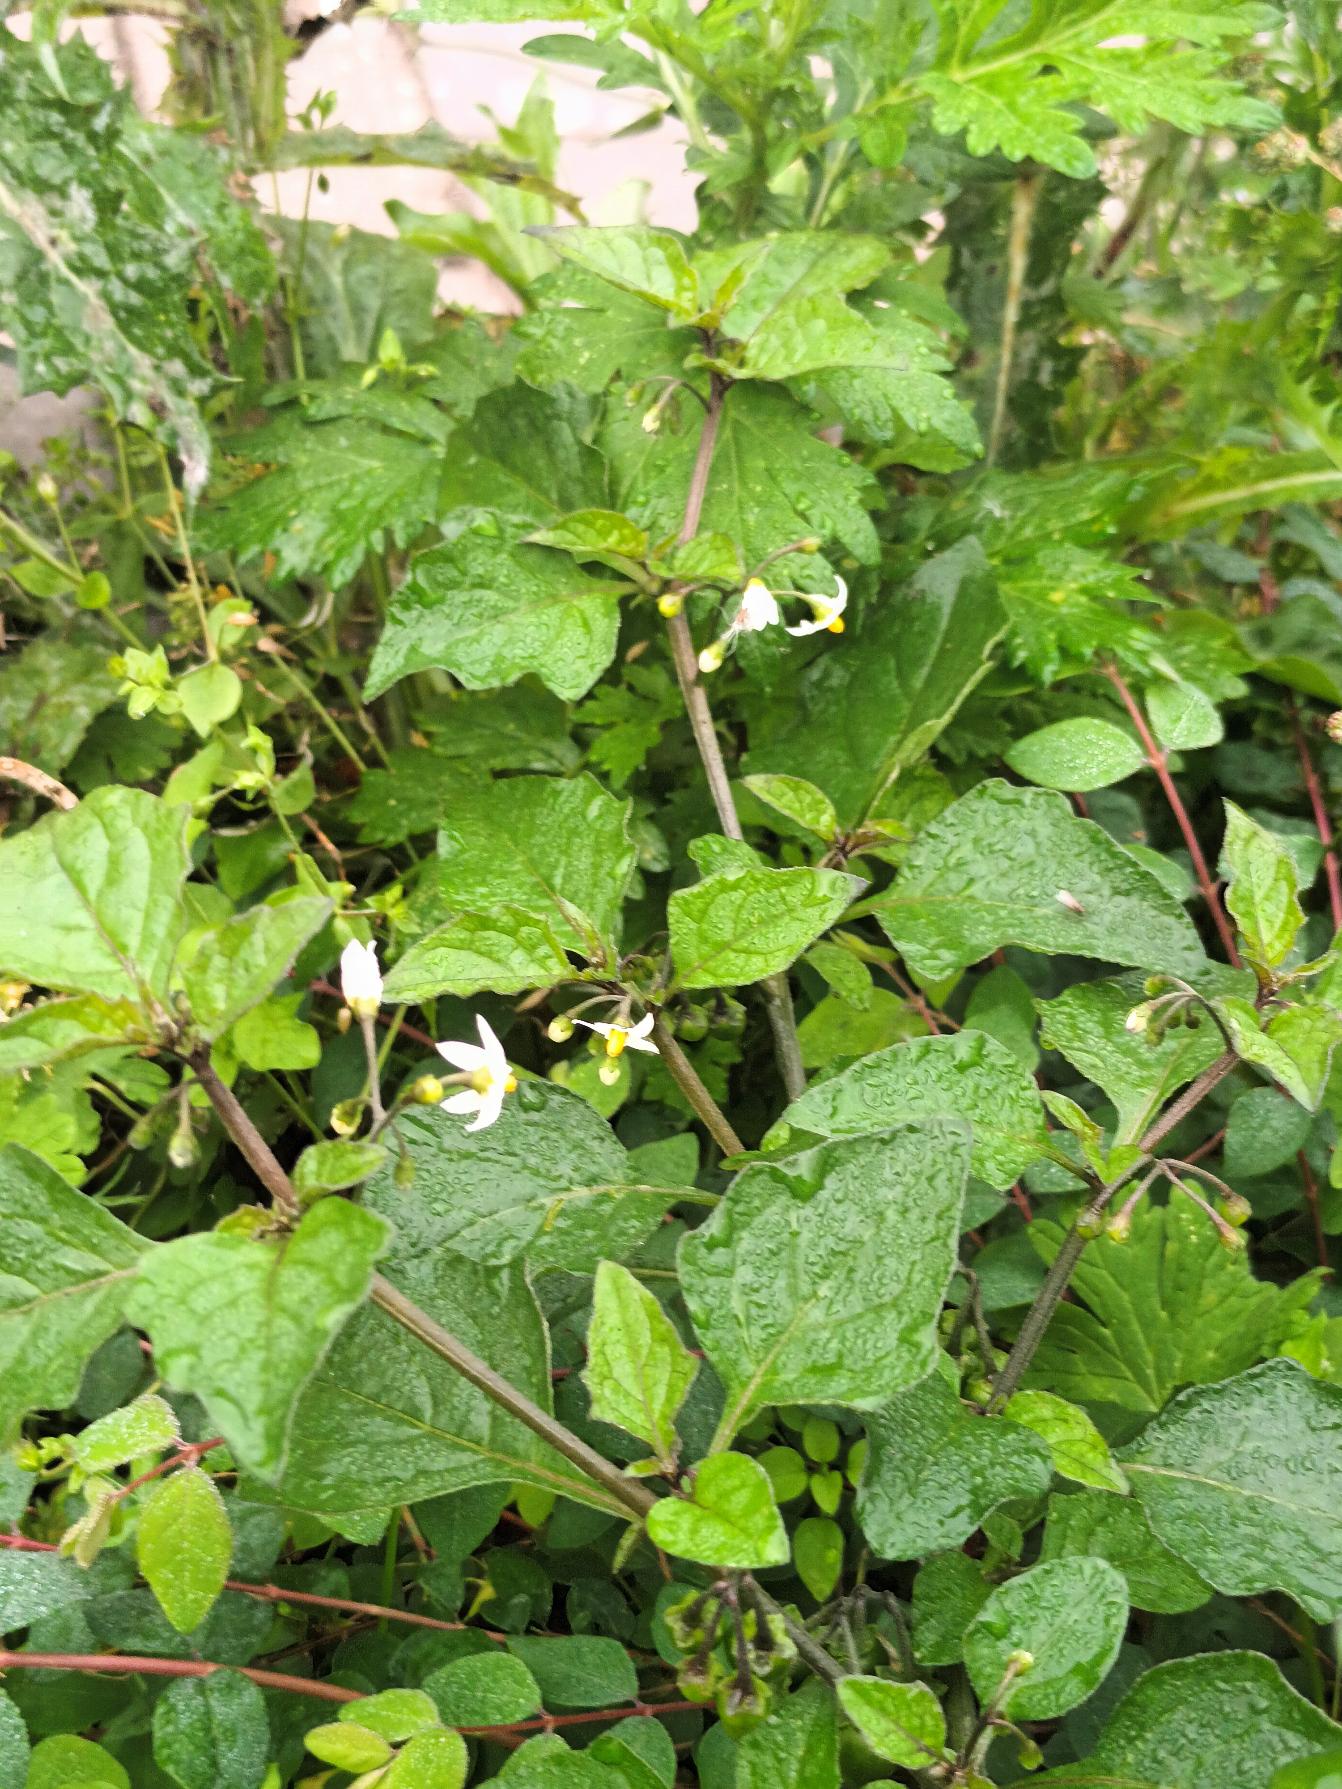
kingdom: Plantae
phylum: Tracheophyta
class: Magnoliopsida
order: Solanales
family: Solanaceae
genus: Solanum
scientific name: Solanum nigrum
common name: Sort natskygge
